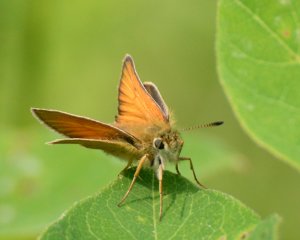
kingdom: Animalia
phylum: Arthropoda
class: Insecta
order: Lepidoptera
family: Hesperiidae
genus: Thymelicus
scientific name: Thymelicus lineola
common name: European Skipper
